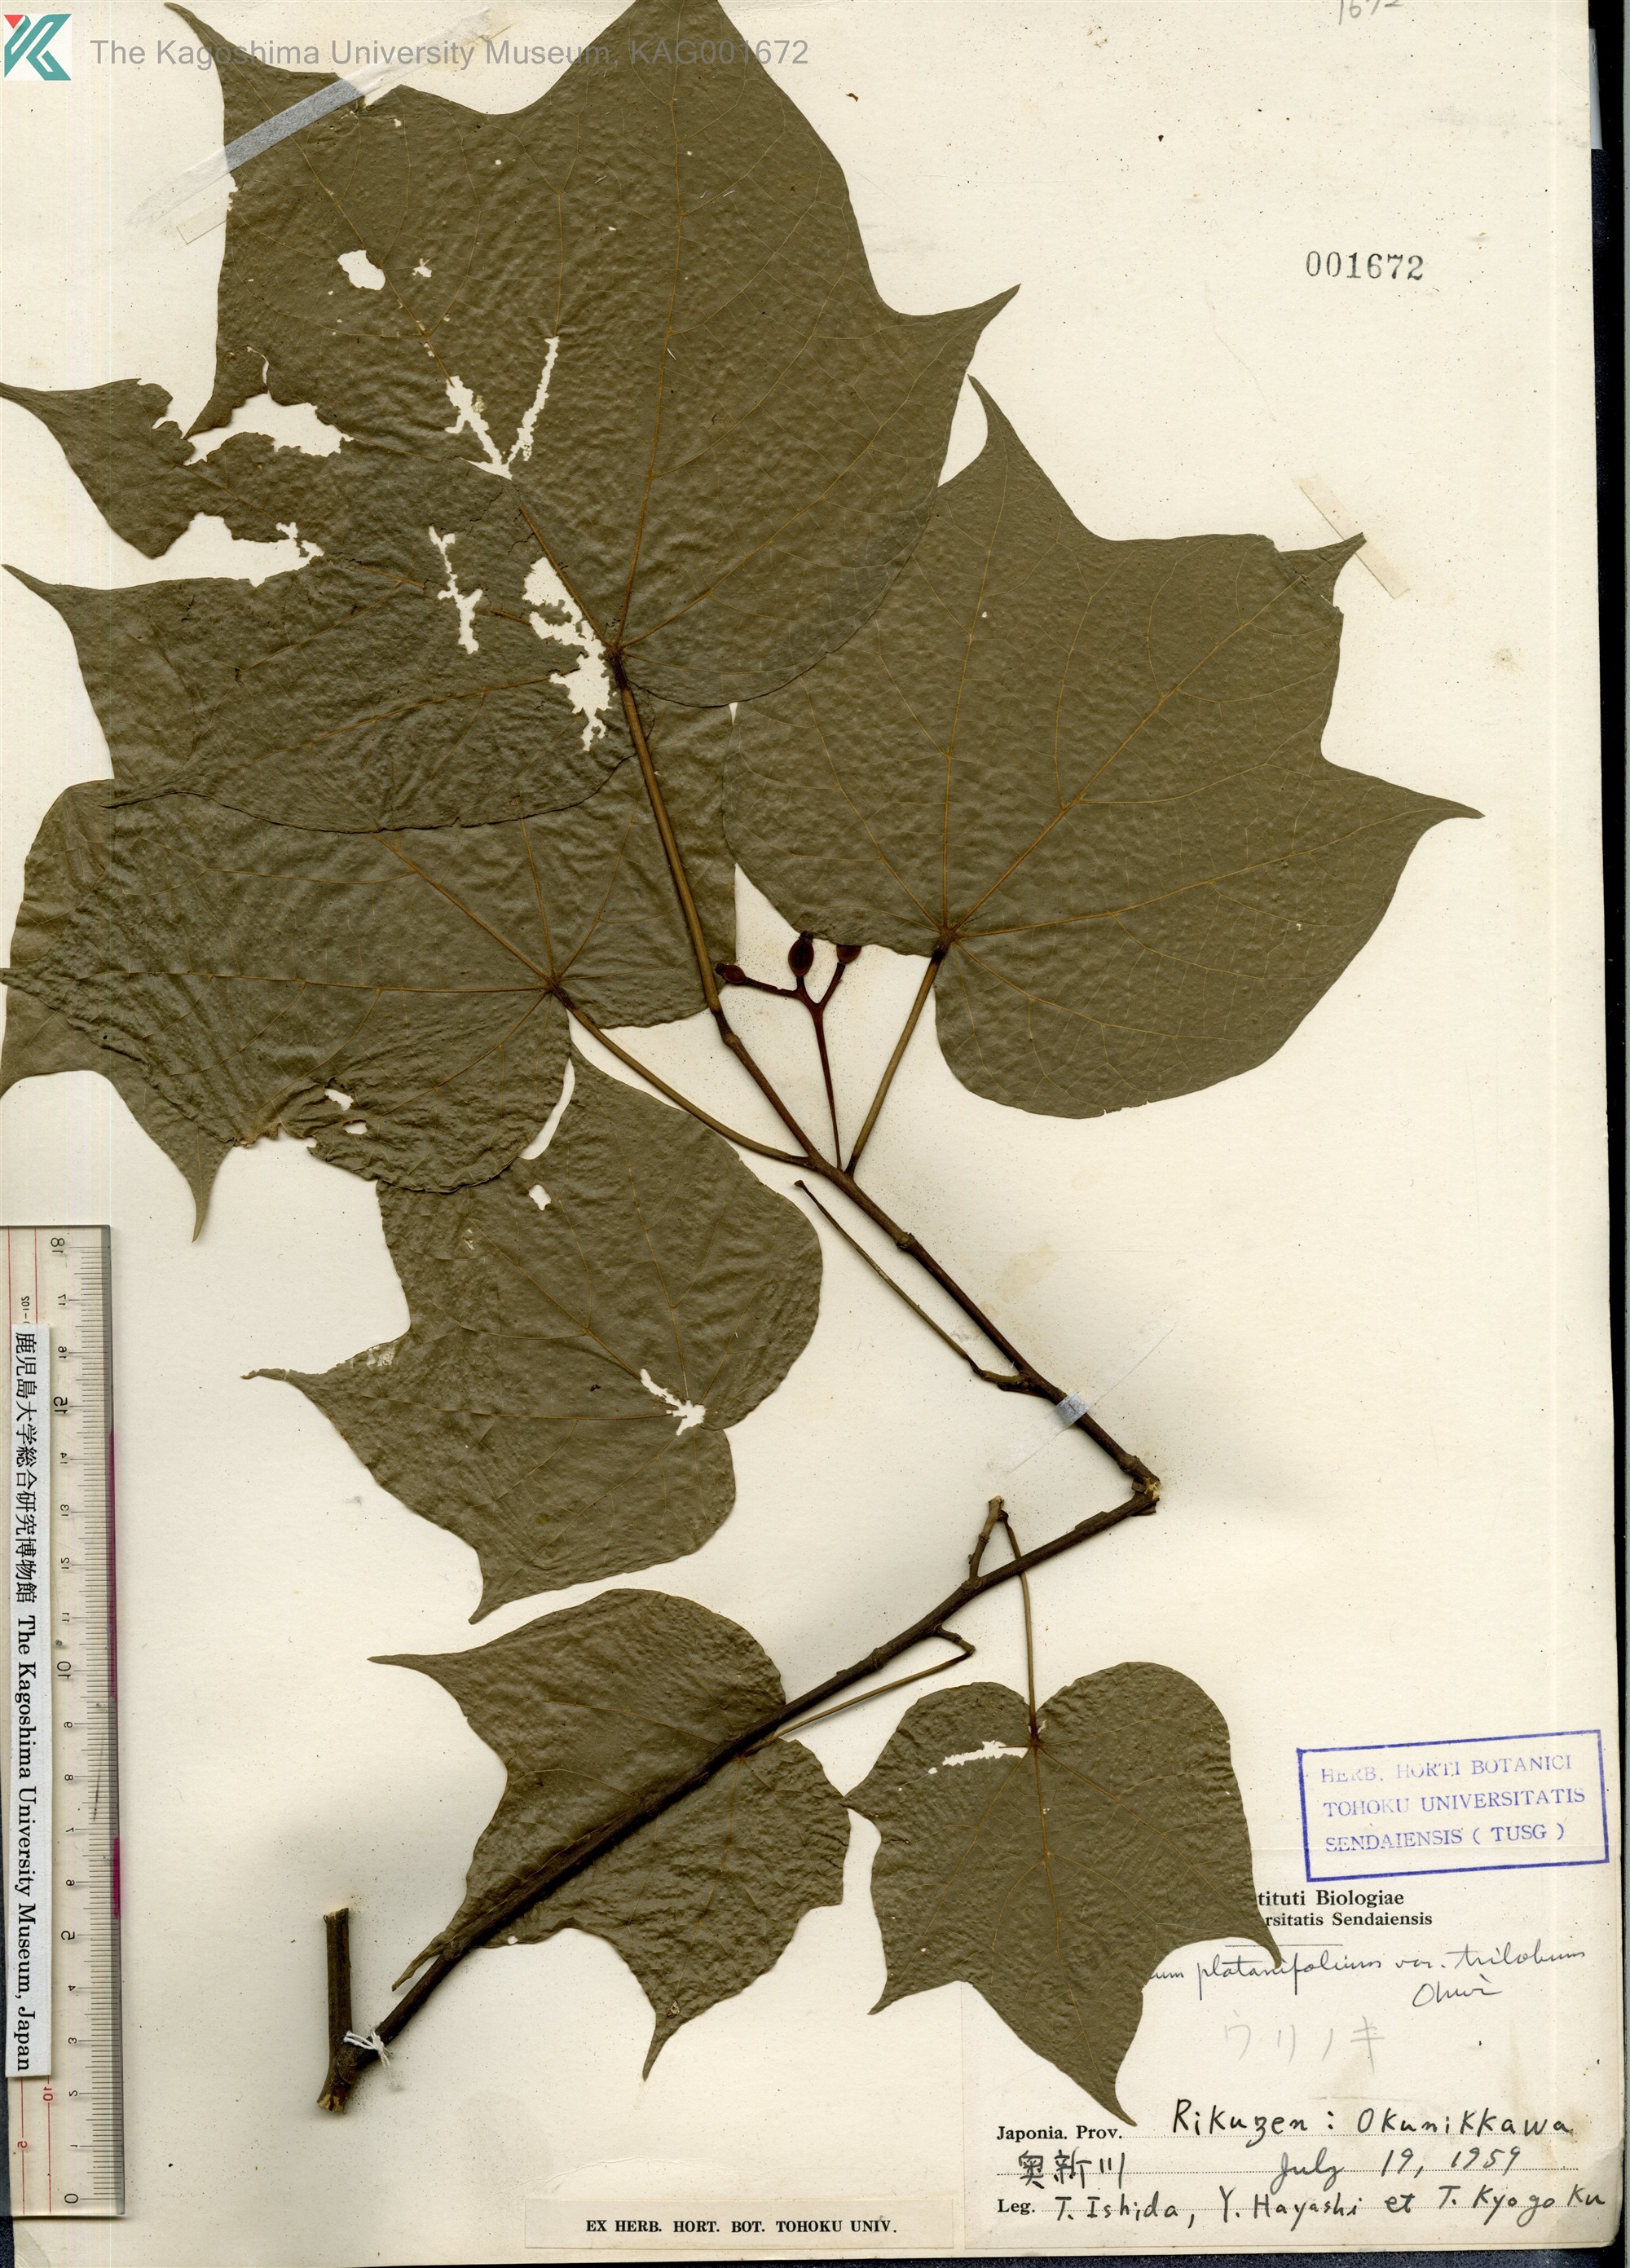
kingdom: Plantae
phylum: Tracheophyta
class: Magnoliopsida
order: Cornales
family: Cornaceae
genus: Alangium
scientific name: Alangium platanifolium
